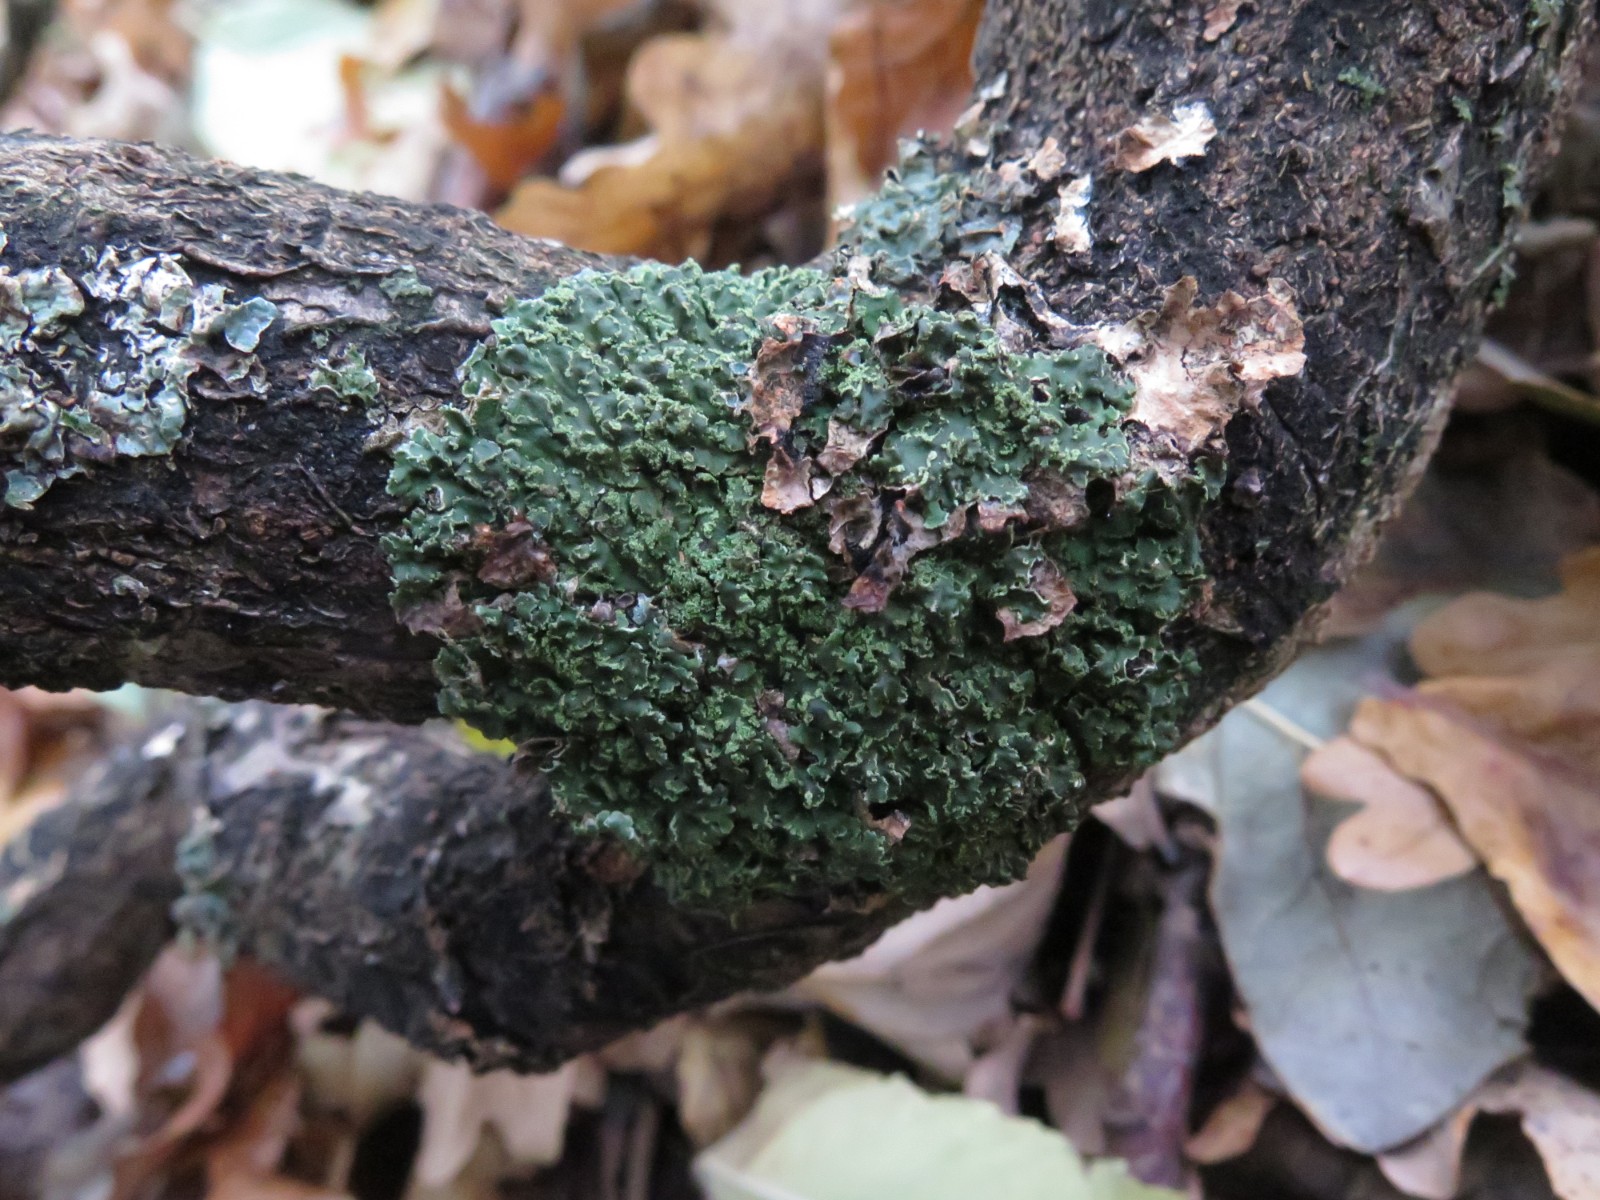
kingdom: Fungi
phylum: Ascomycota
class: Lecanoromycetes
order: Caliciales
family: Physciaceae
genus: Physconia
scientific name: Physconia perisidiosa
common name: liden dugrosetlav
